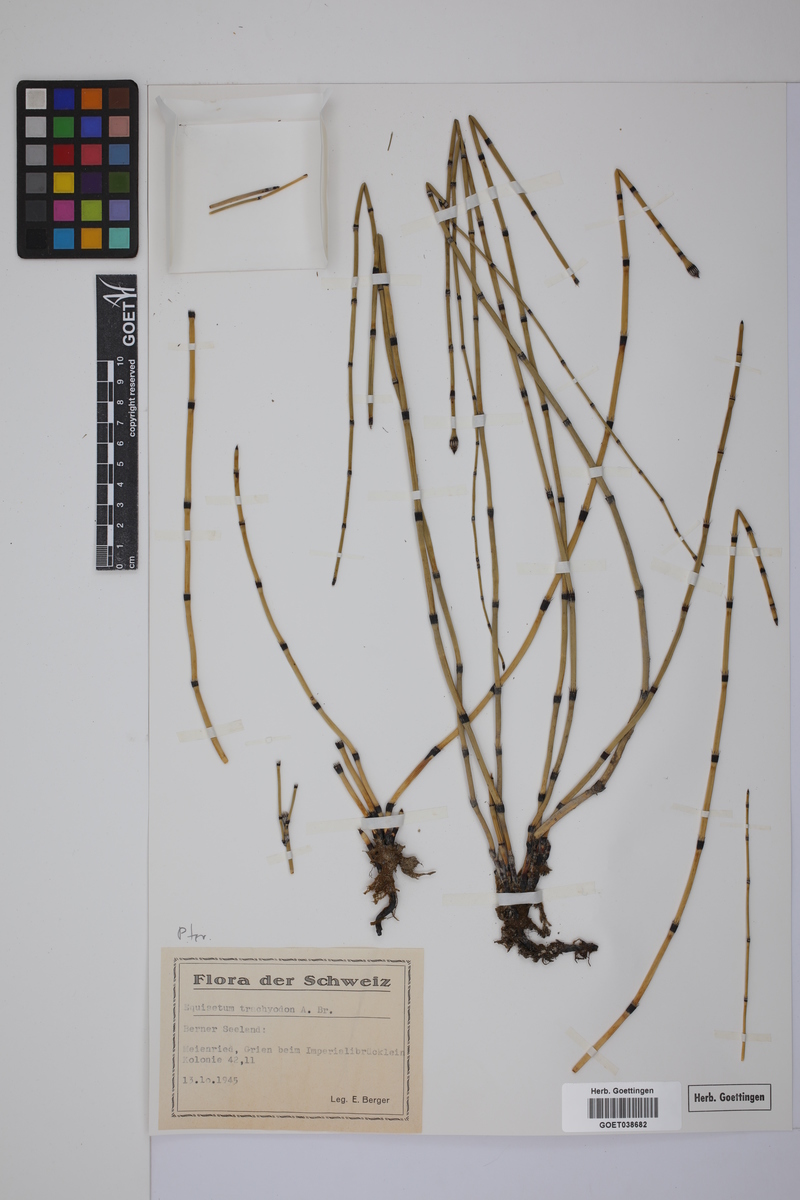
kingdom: Plantae
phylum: Tracheophyta
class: Polypodiopsida
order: Equisetales
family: Equisetaceae
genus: Equisetum
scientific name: Equisetum hyemale
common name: Rough horsetail
